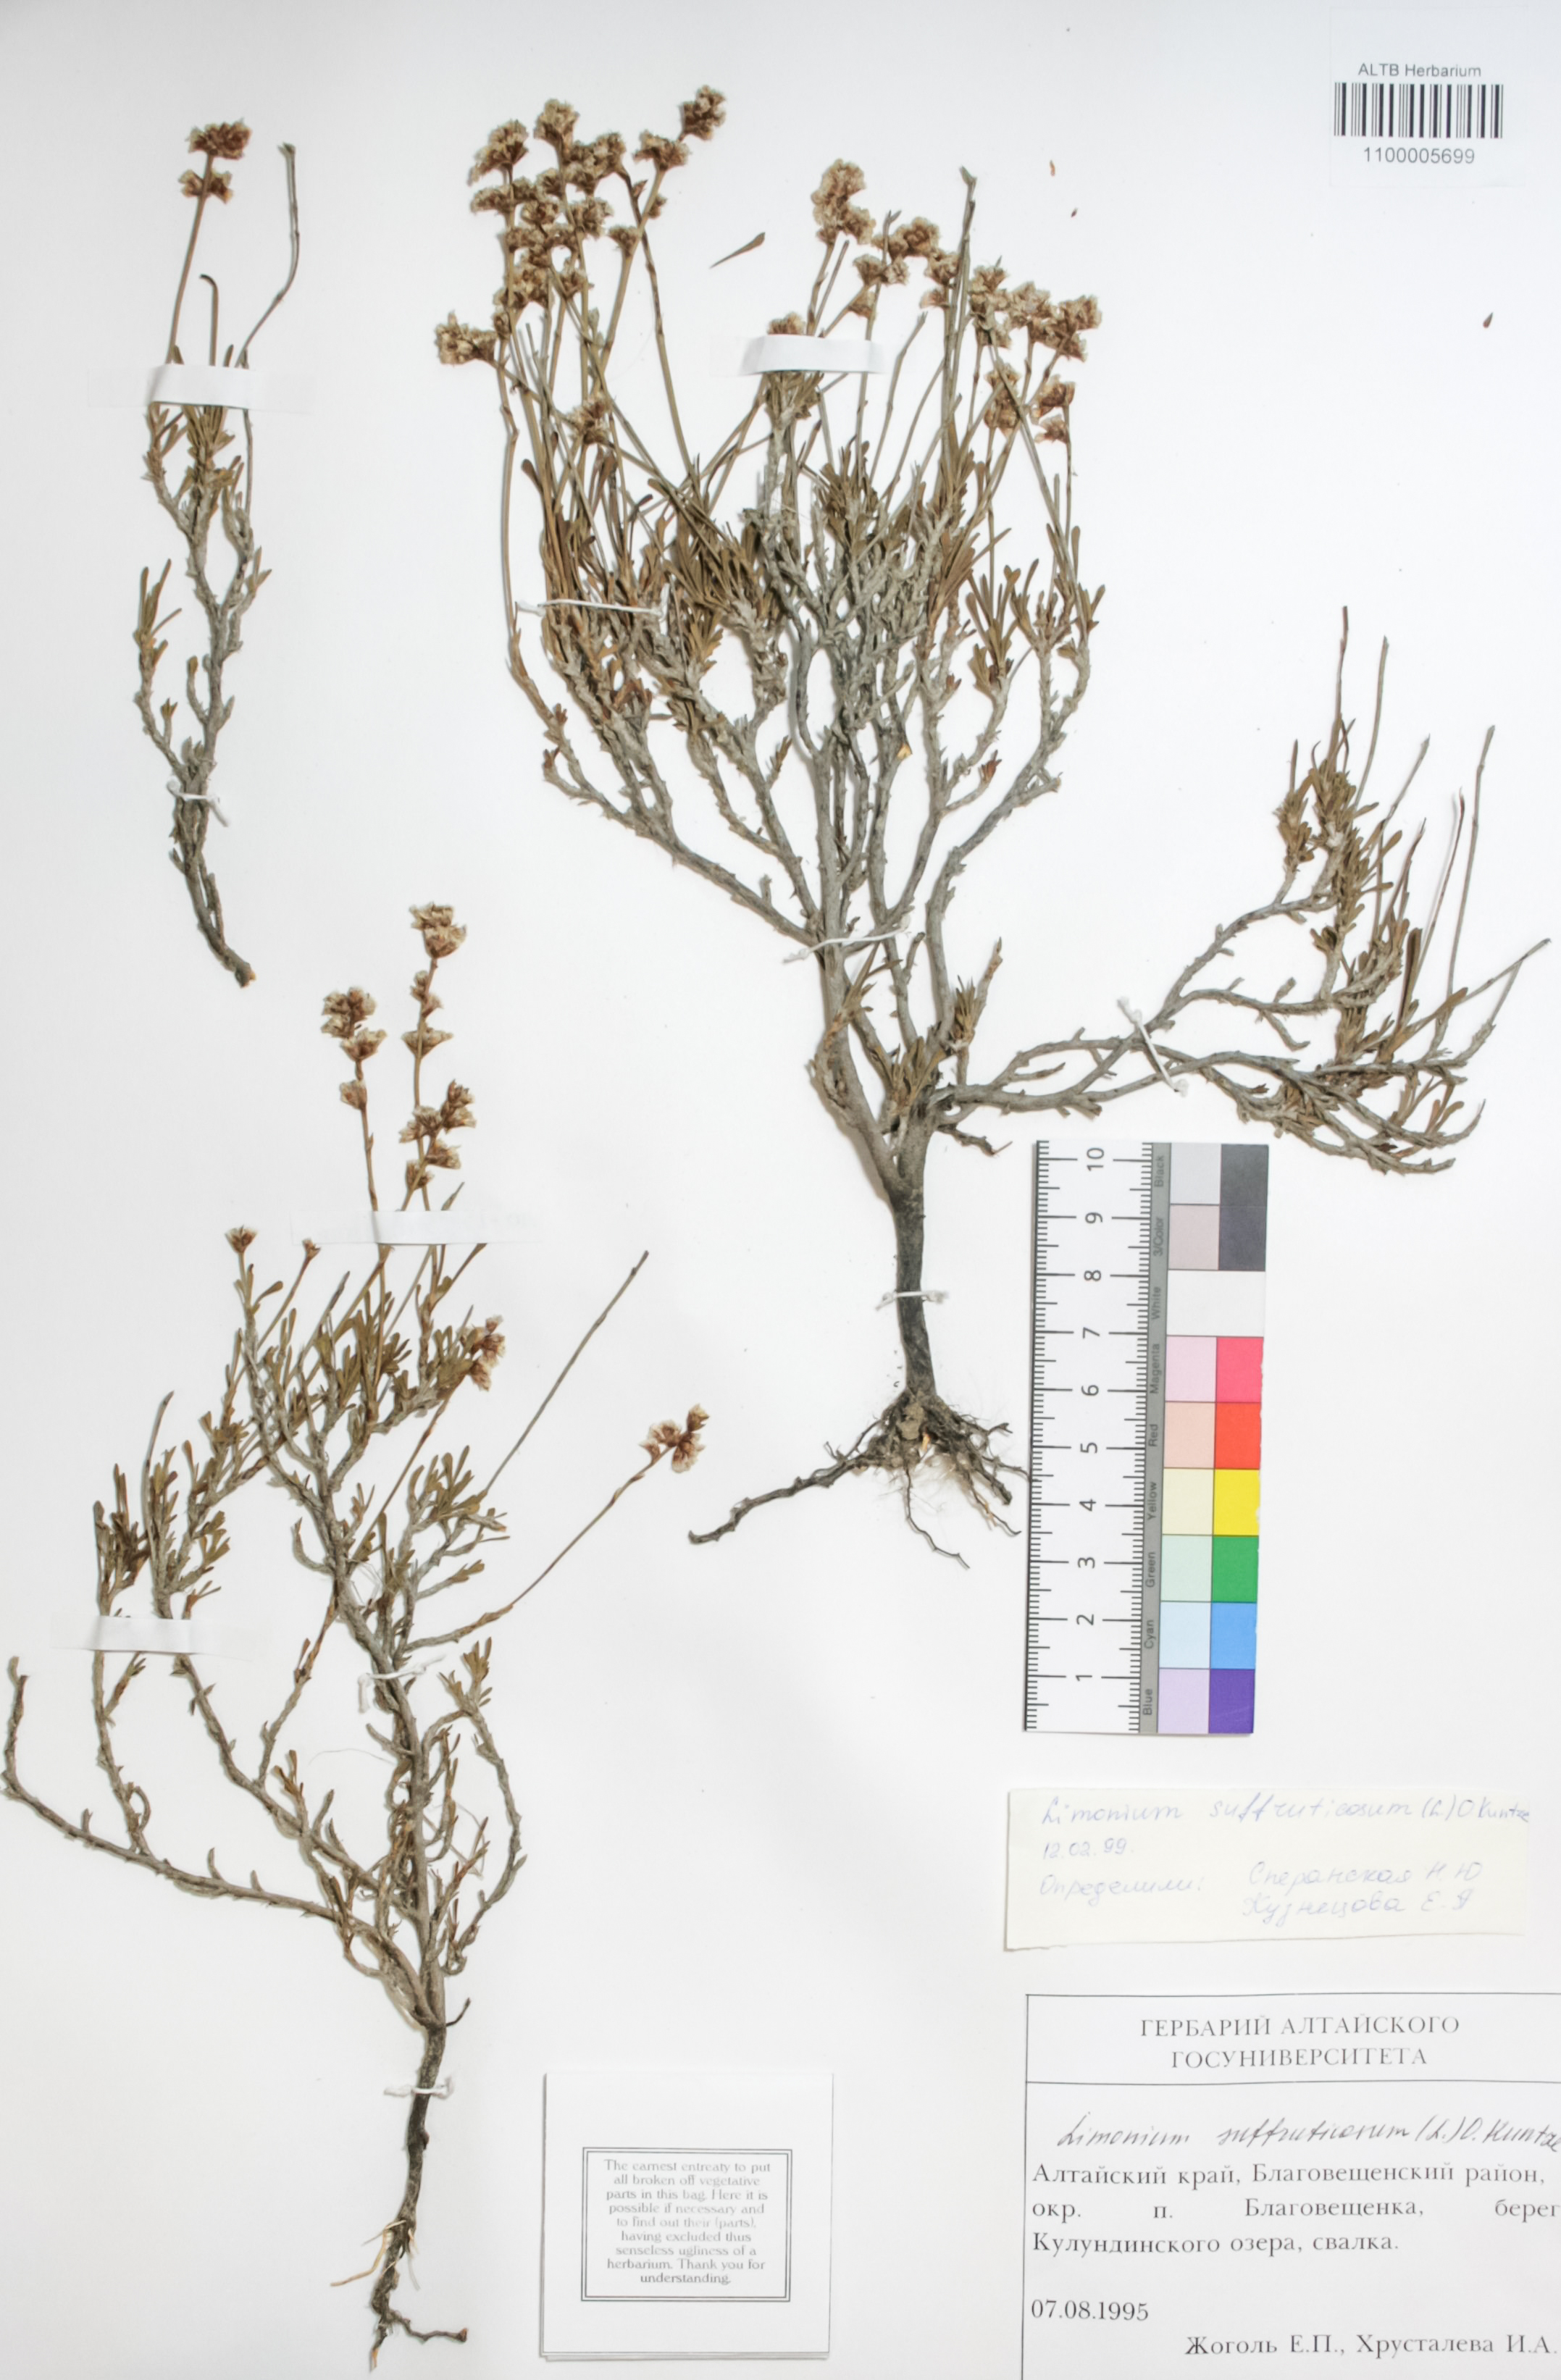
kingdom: Plantae
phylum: Tracheophyta
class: Magnoliopsida
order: Caryophyllales
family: Plumbaginaceae
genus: Limonium
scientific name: Limonium suffruticosum
